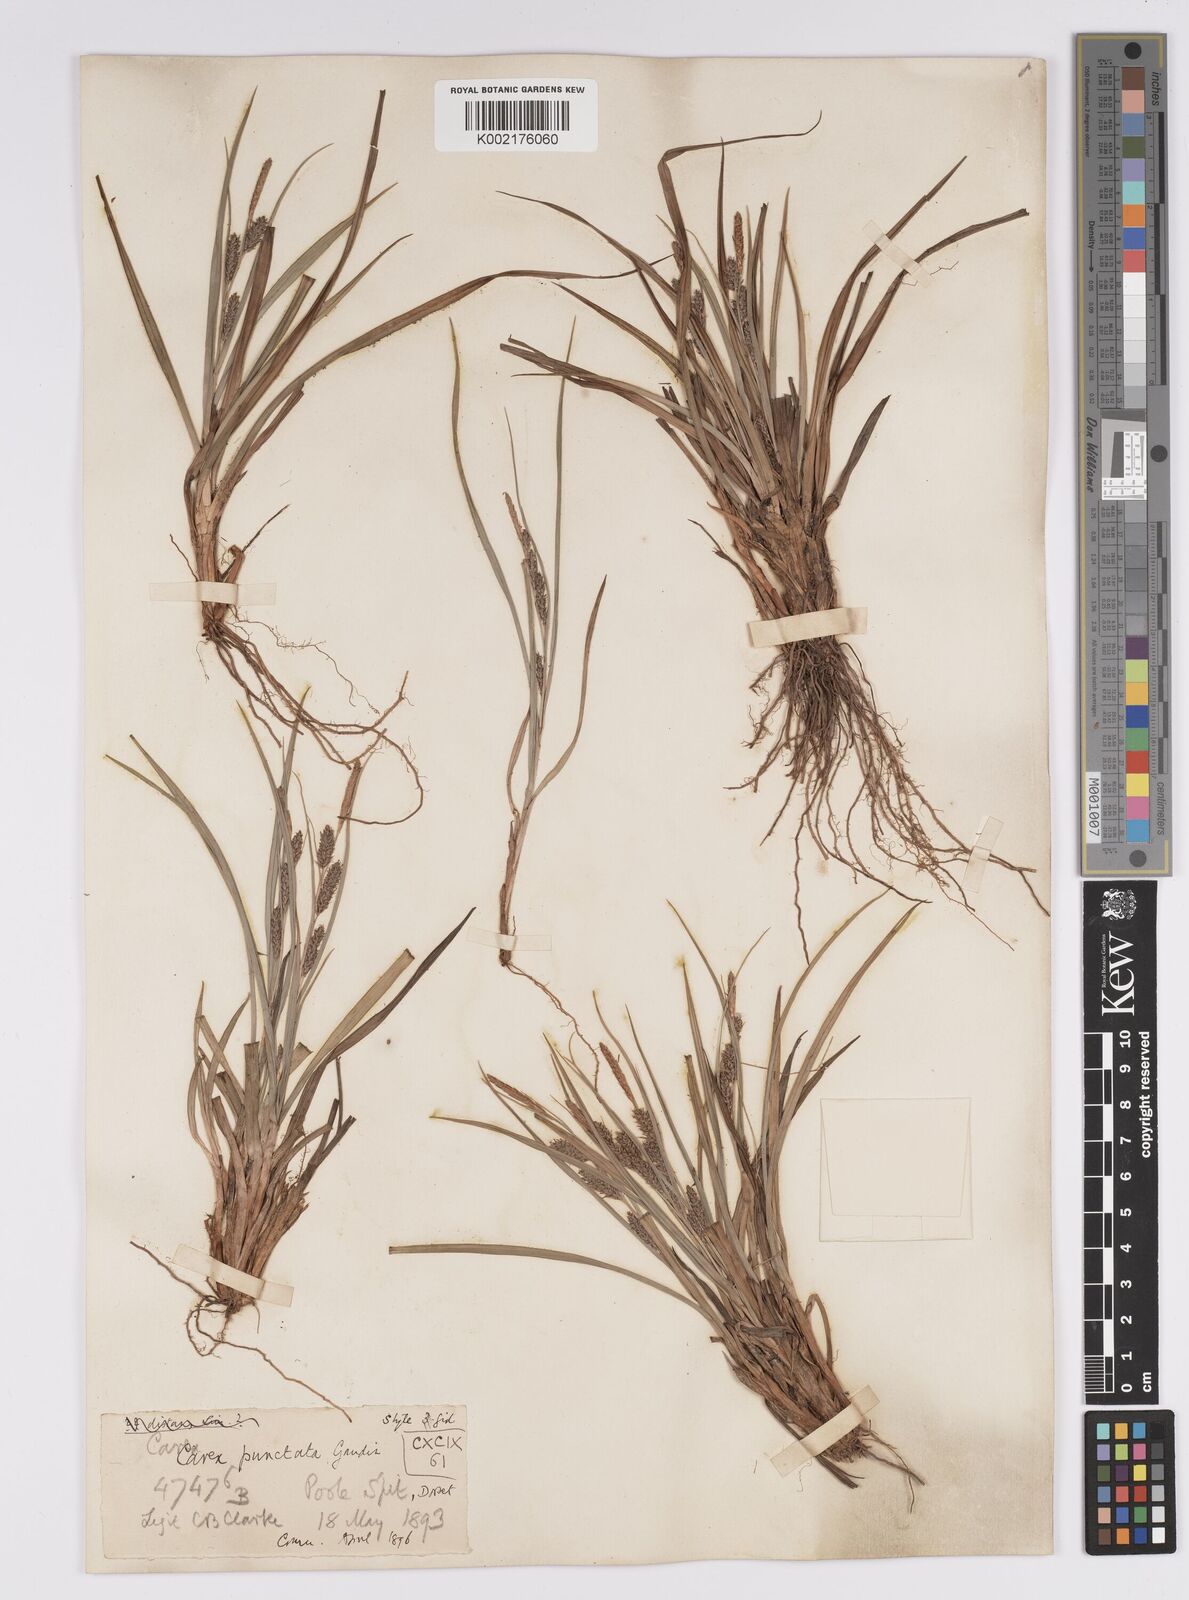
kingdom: Plantae
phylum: Tracheophyta
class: Liliopsida
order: Poales
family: Cyperaceae
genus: Carex
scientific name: Carex punctata
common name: Dotted sedge
